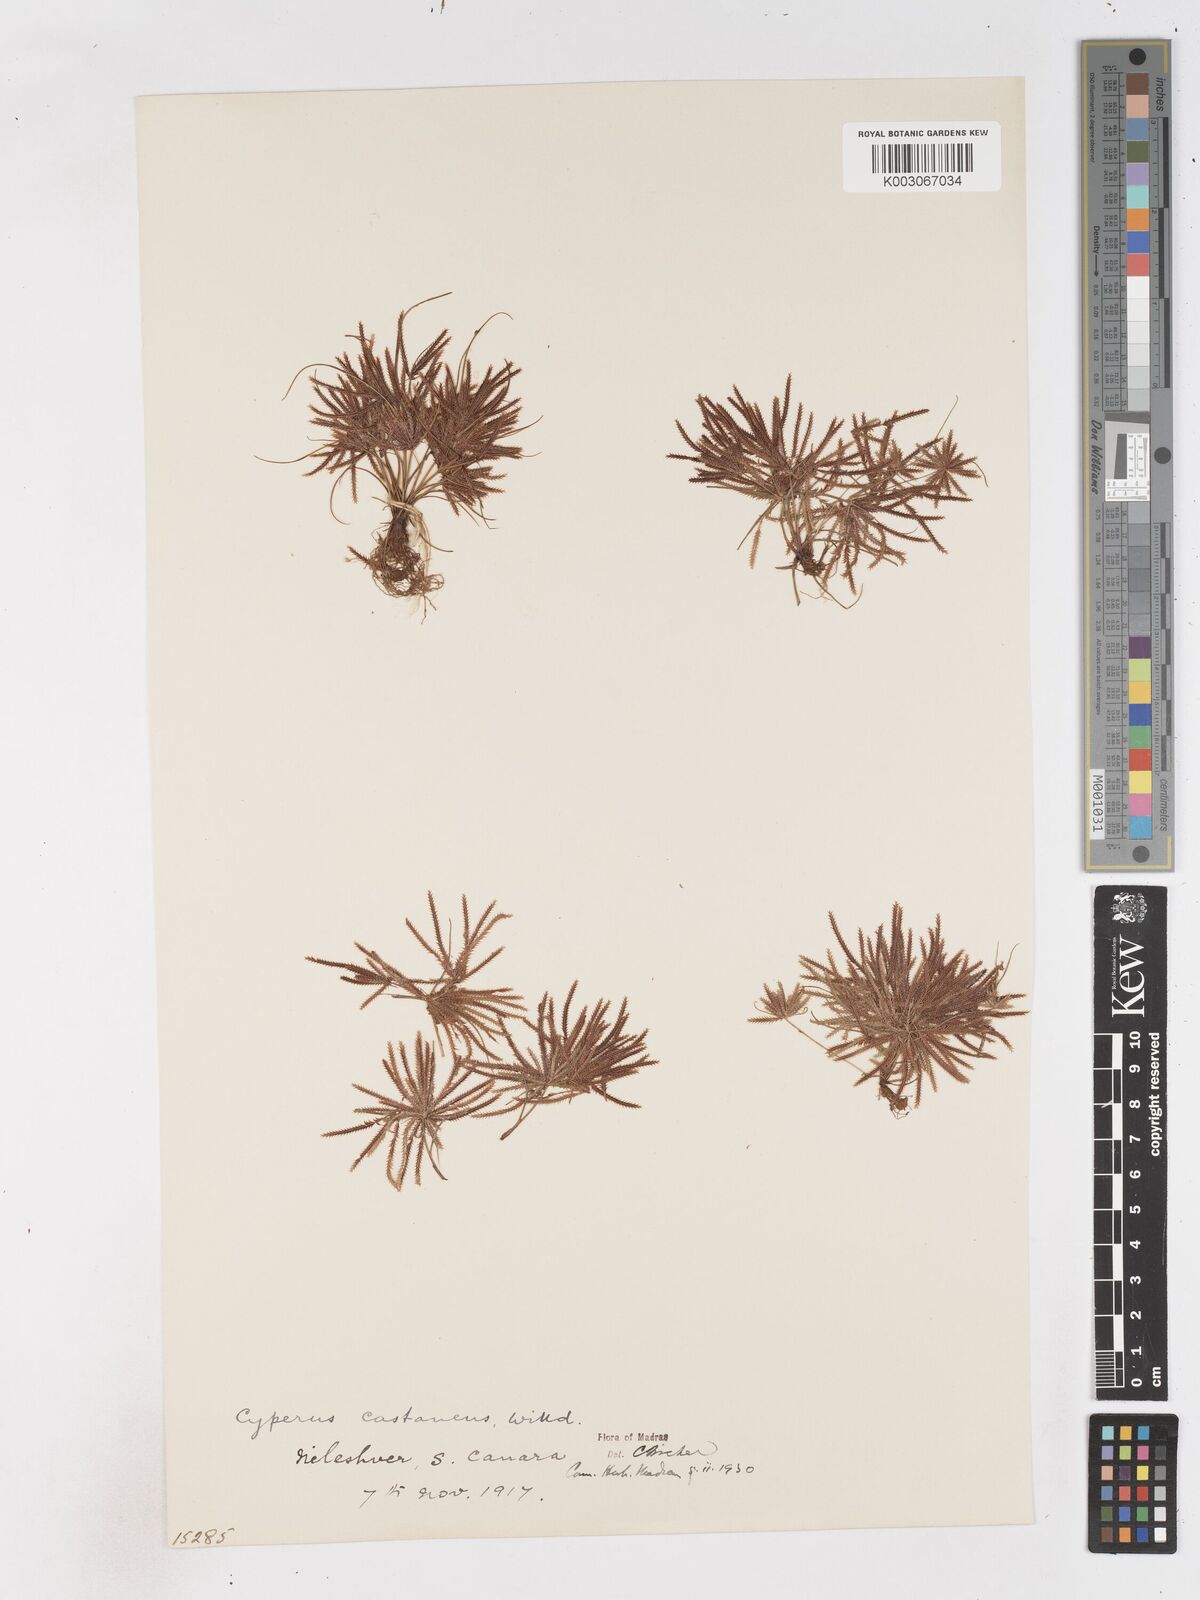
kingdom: Plantae
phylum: Tracheophyta
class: Liliopsida
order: Poales
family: Cyperaceae
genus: Cyperus
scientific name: Cyperus castaneus
